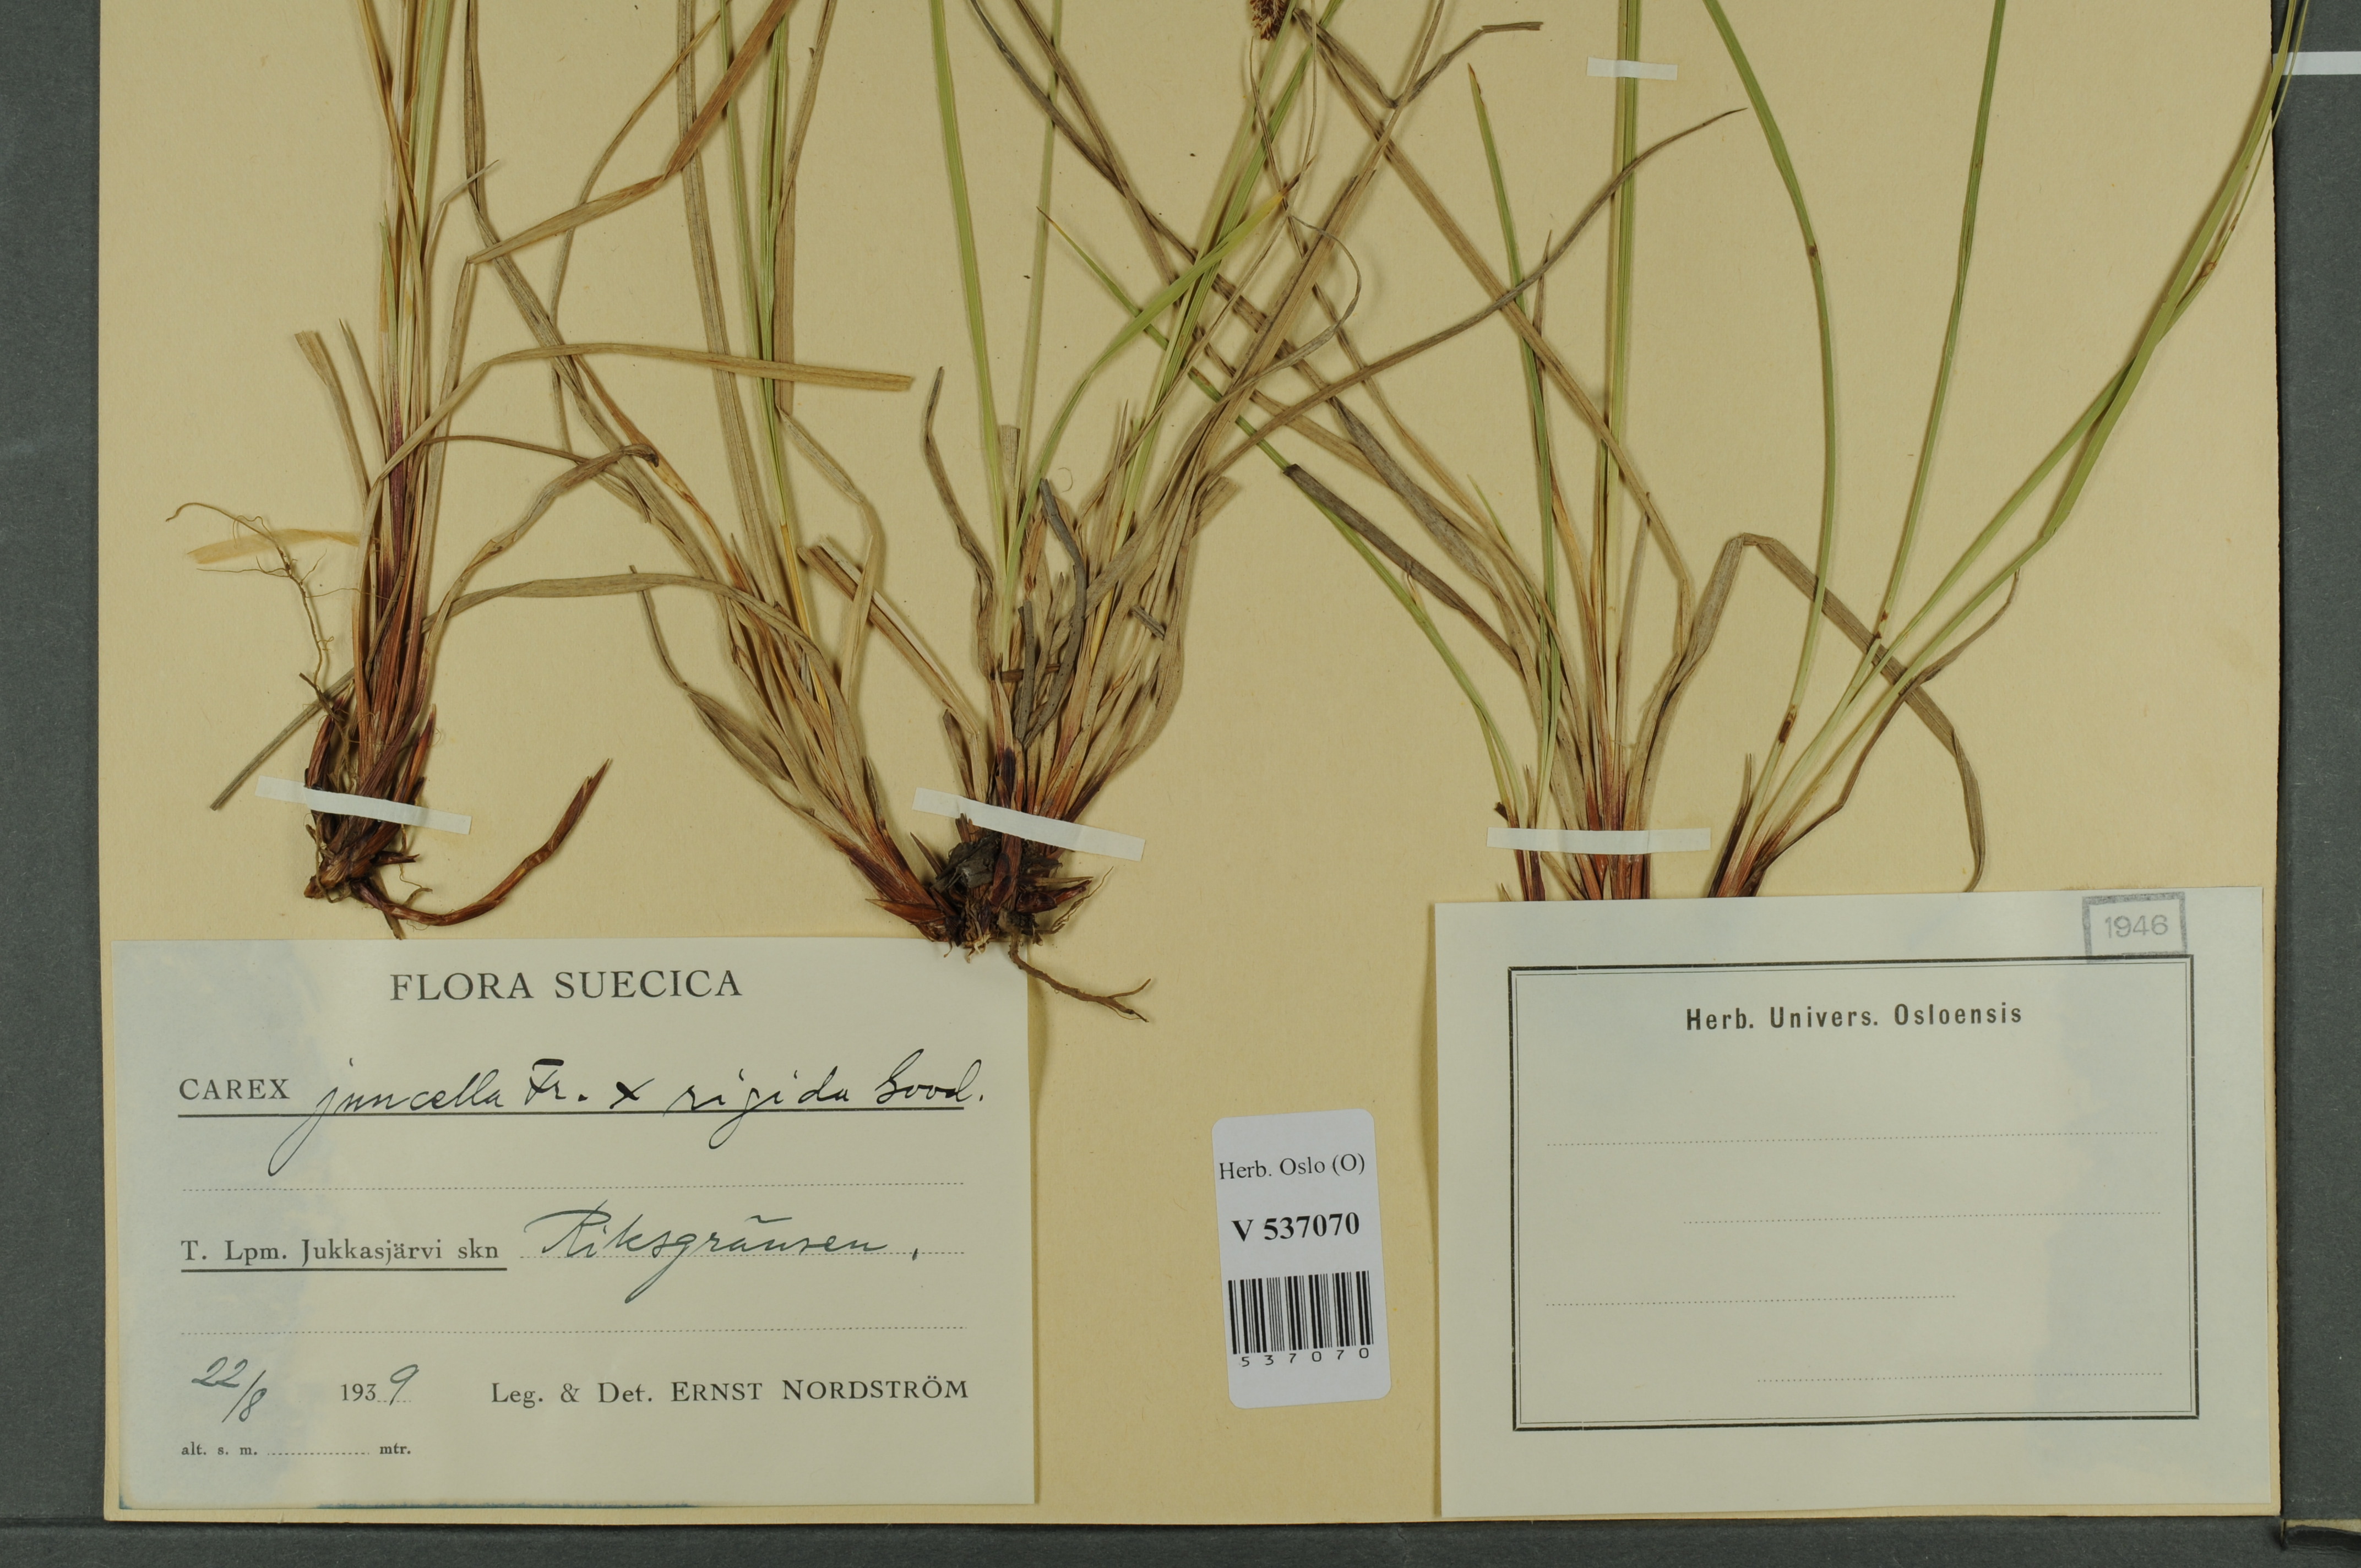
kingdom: Plantae
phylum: Tracheophyta
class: Liliopsida
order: Poales
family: Cyperaceae
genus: Carex
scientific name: Carex
